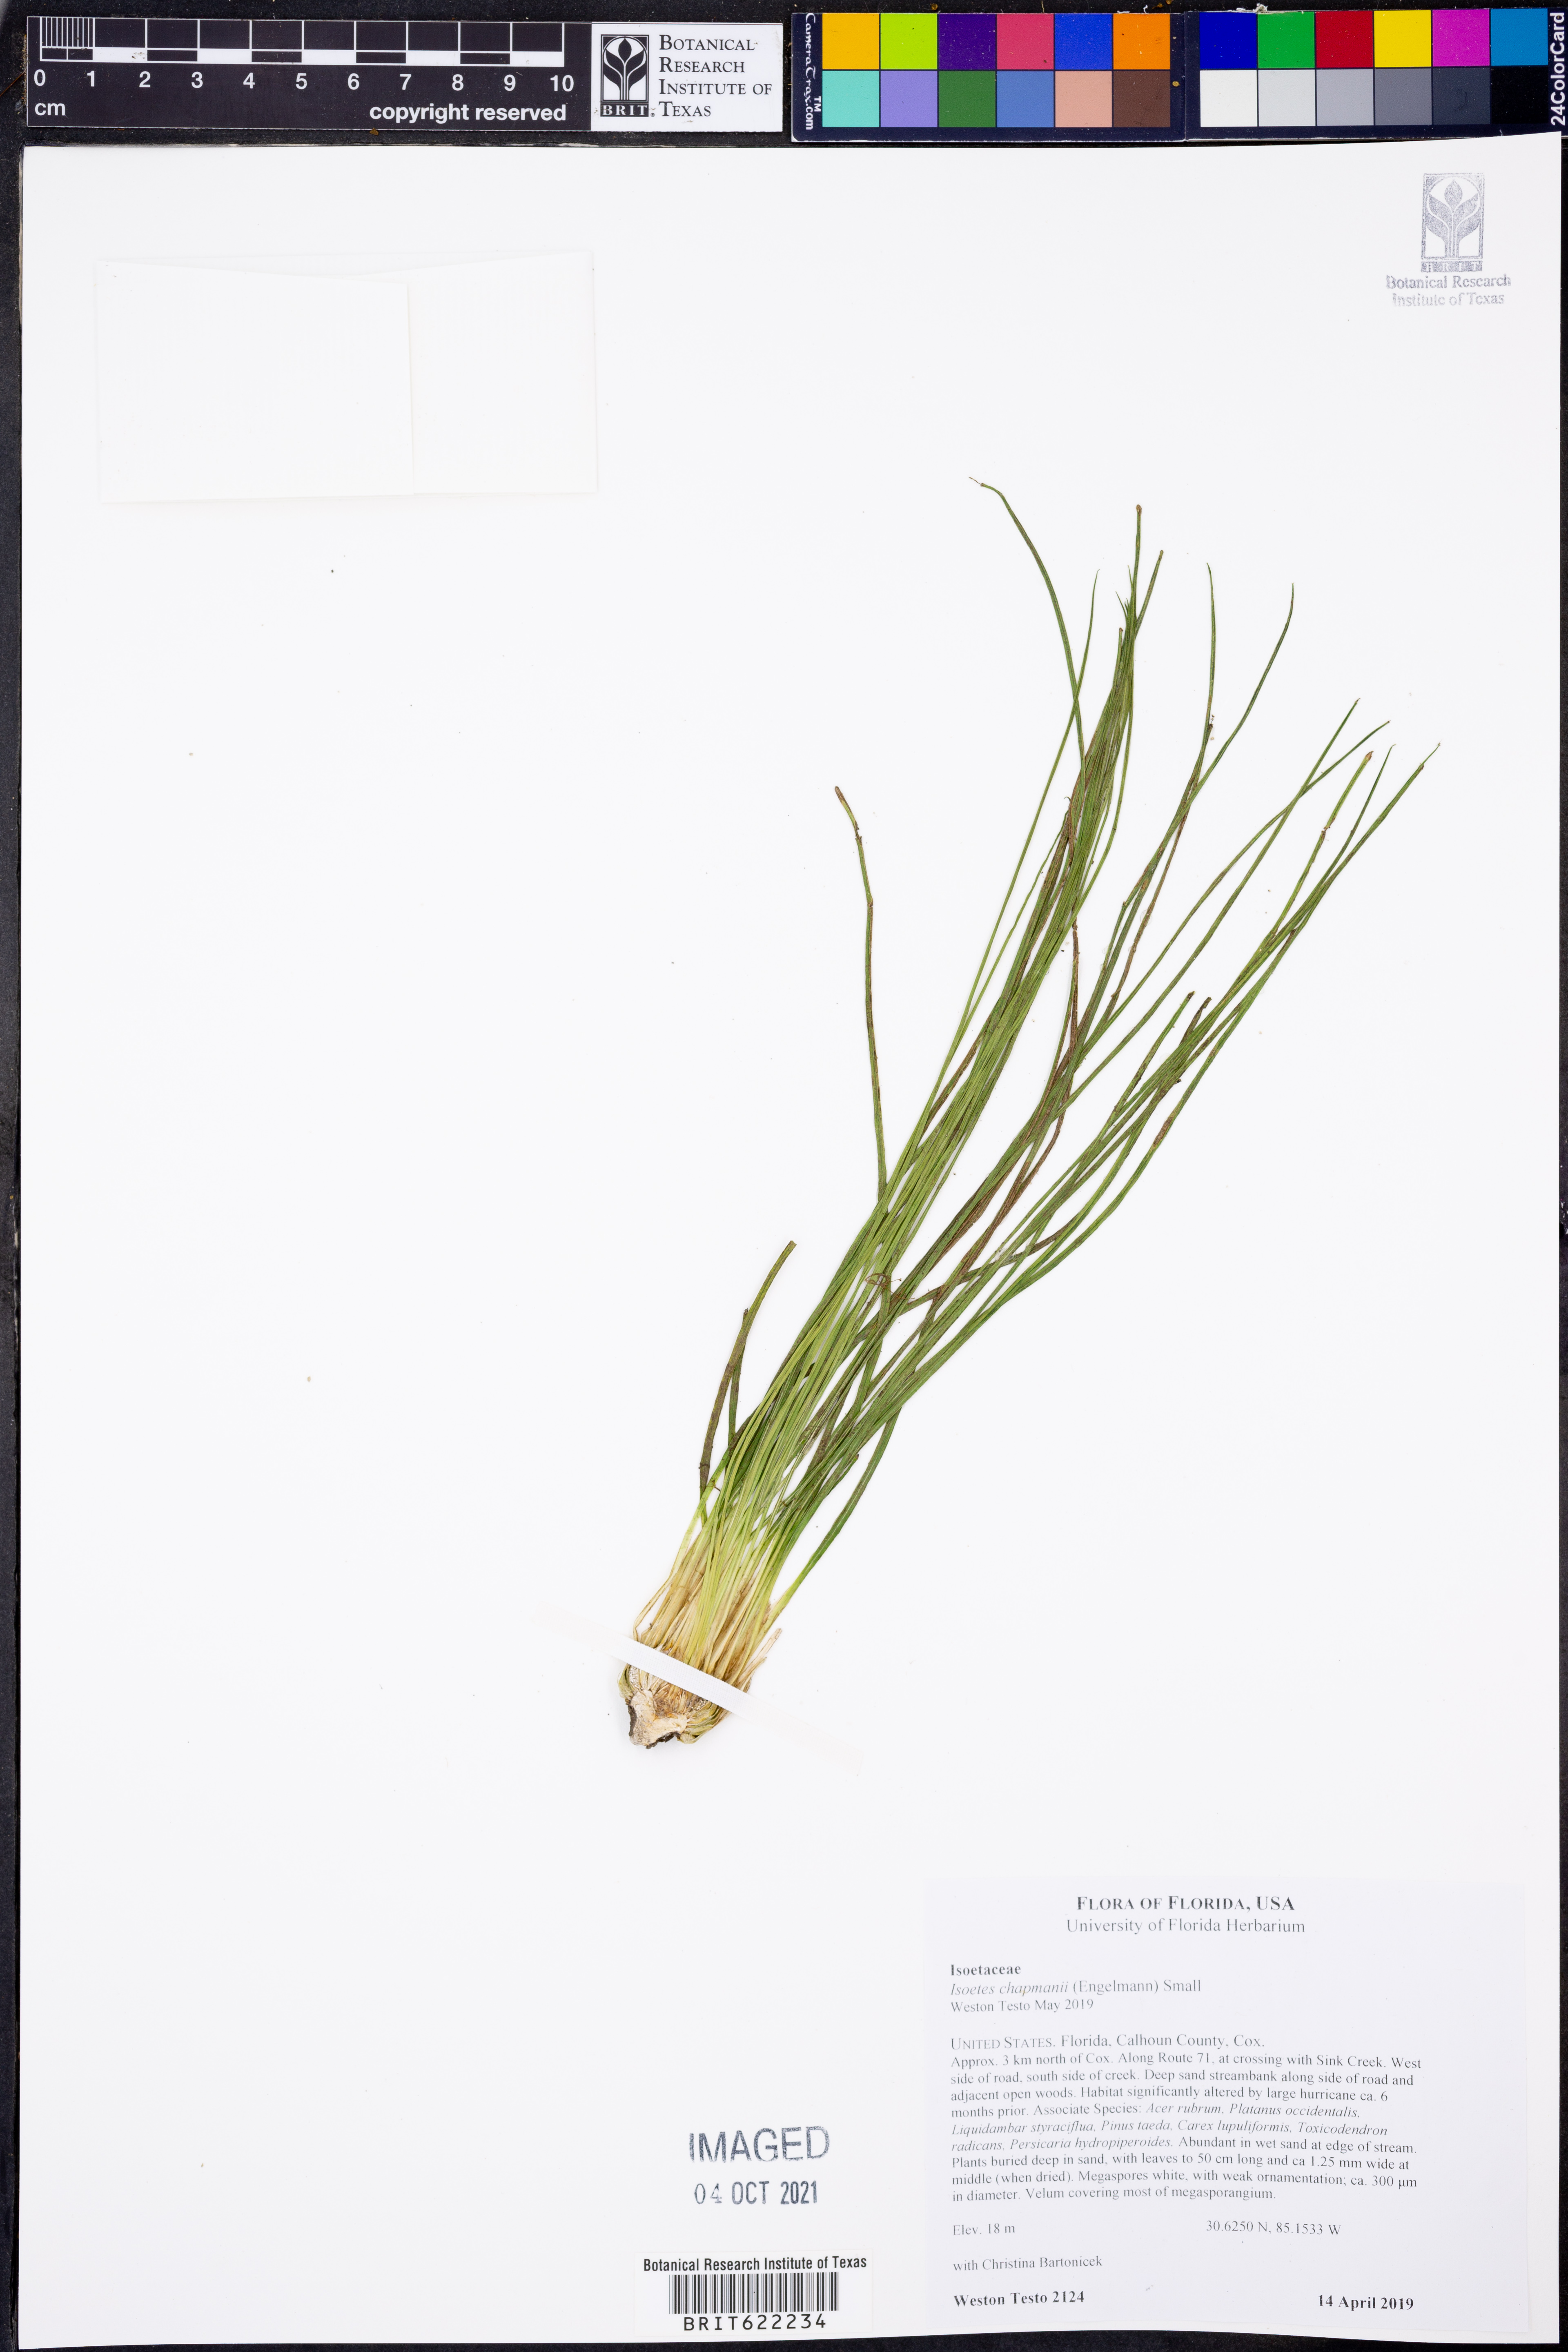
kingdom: Plantae
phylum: Tracheophyta
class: Lycopodiopsida
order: Isoetales
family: Isoetaceae
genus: Isoetes
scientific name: Isoetes flaccida
